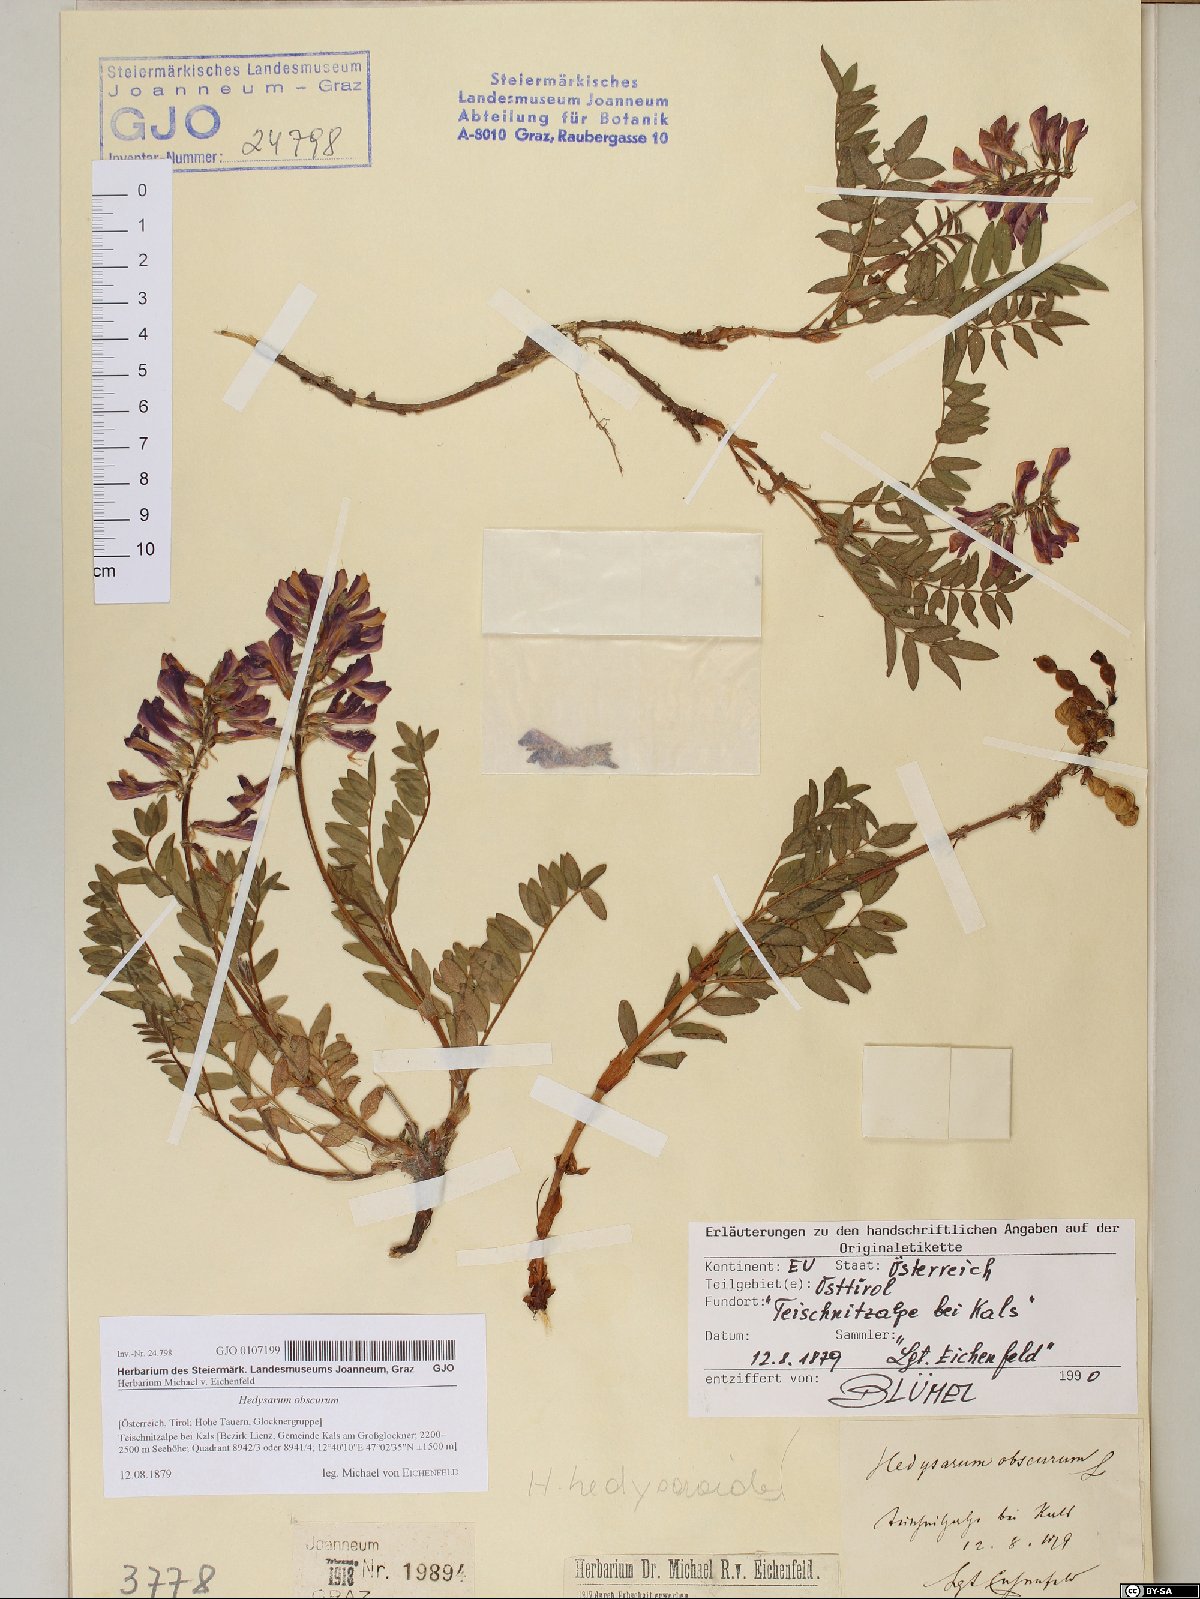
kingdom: Plantae
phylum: Tracheophyta
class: Magnoliopsida
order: Fabales
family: Fabaceae
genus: Hedysarum
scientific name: Hedysarum hedysaroides
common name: Alpine french-honeysuckle
